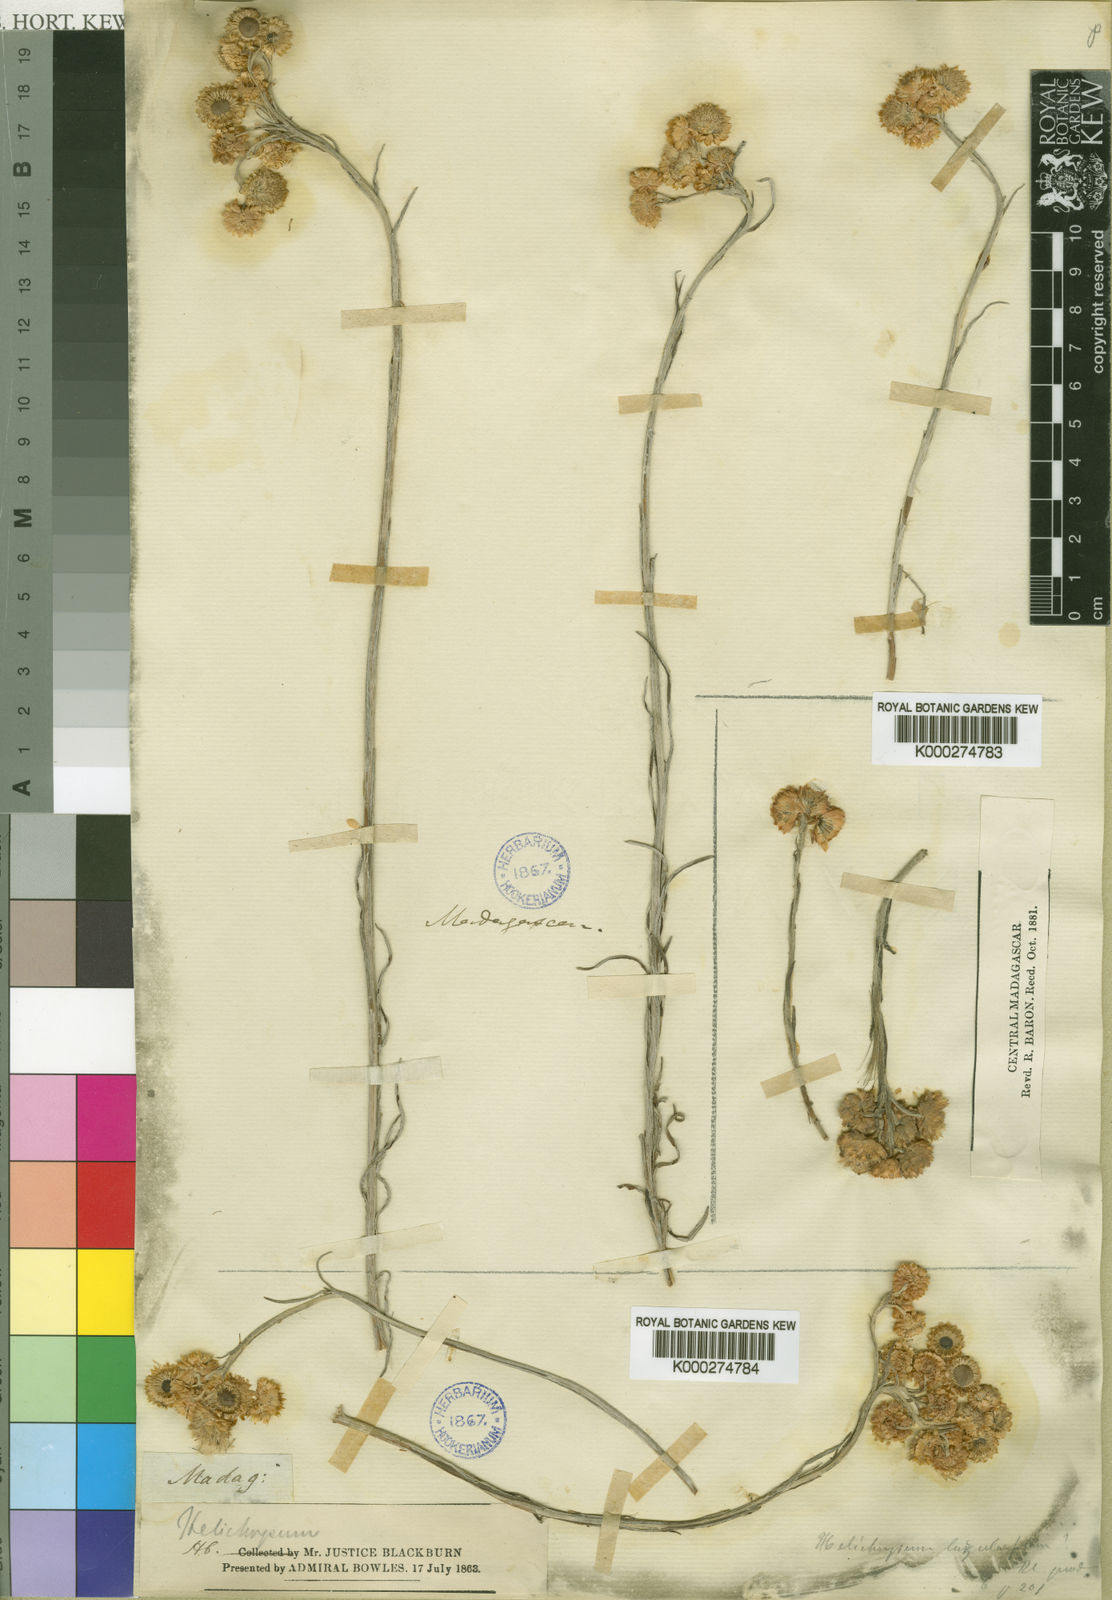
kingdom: Plantae
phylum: Tracheophyta
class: Magnoliopsida
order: Asterales
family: Asteraceae
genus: Helichrysum
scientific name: Helichrysum luzulifolium
